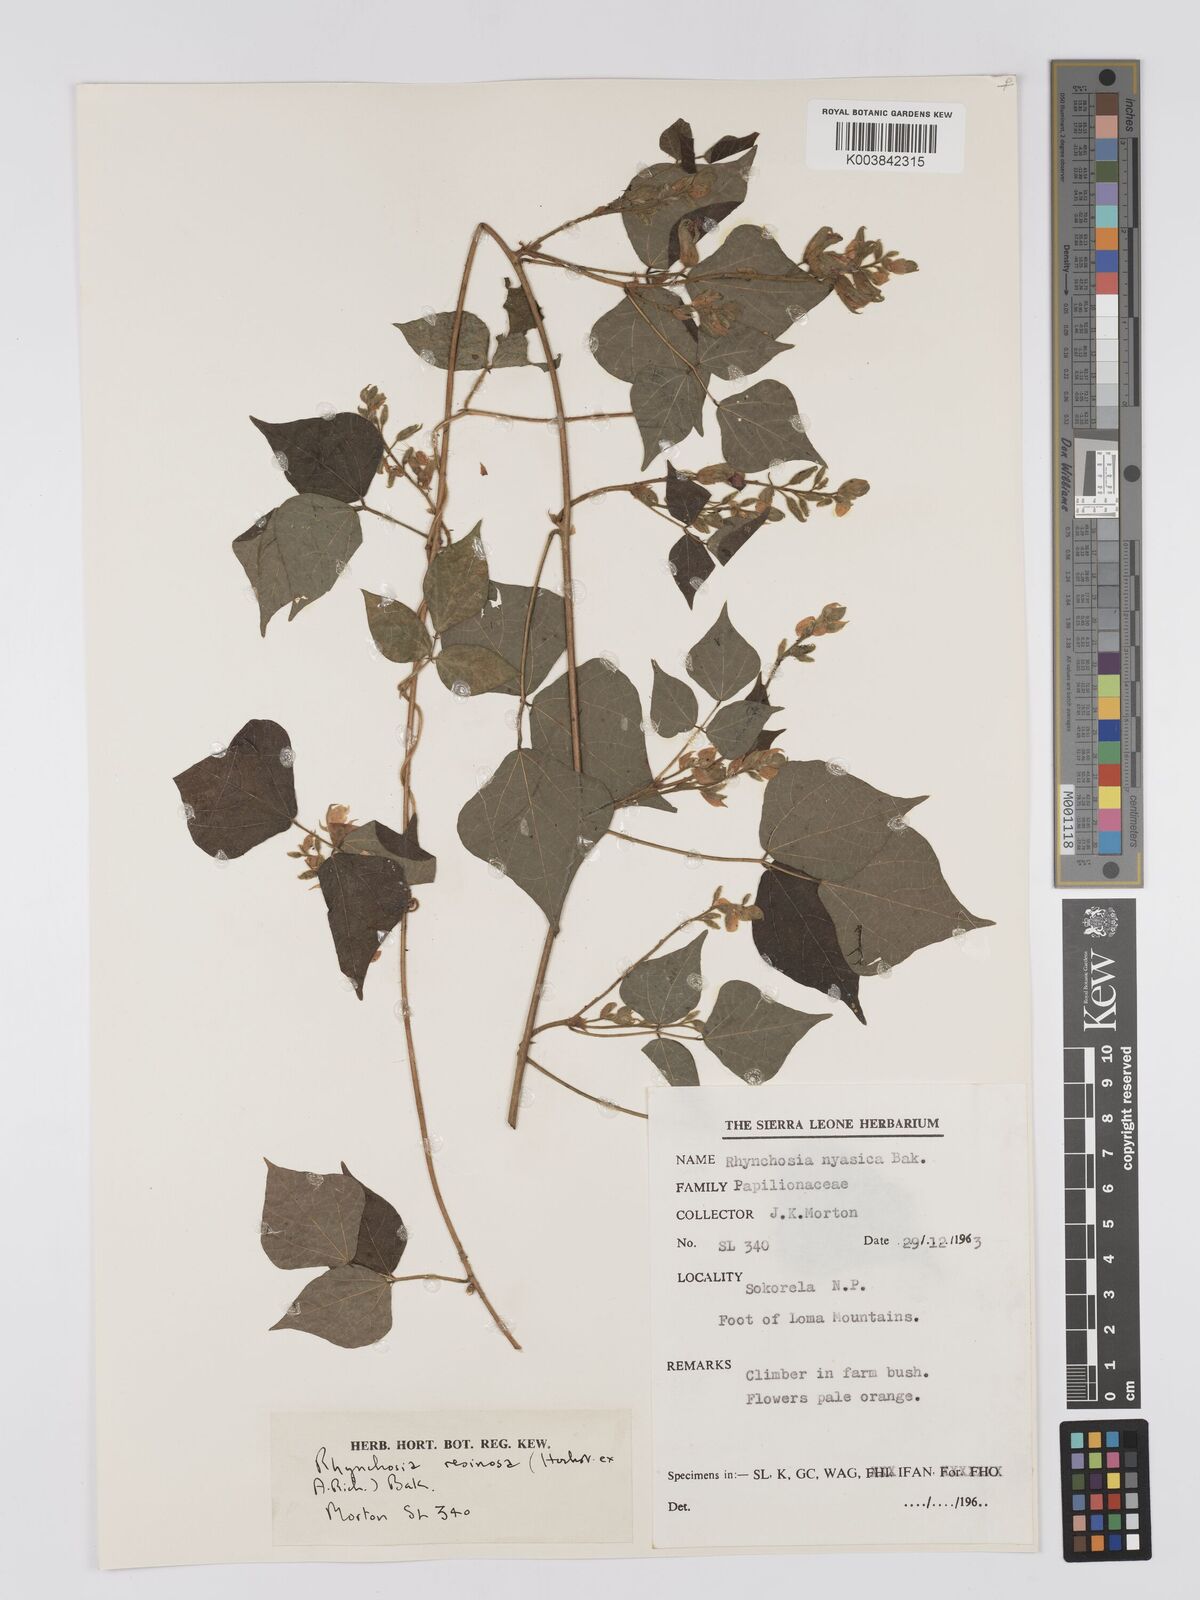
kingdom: Plantae
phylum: Tracheophyta
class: Magnoliopsida
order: Fabales
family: Fabaceae
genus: Rhynchosia
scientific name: Rhynchosia resinosa
